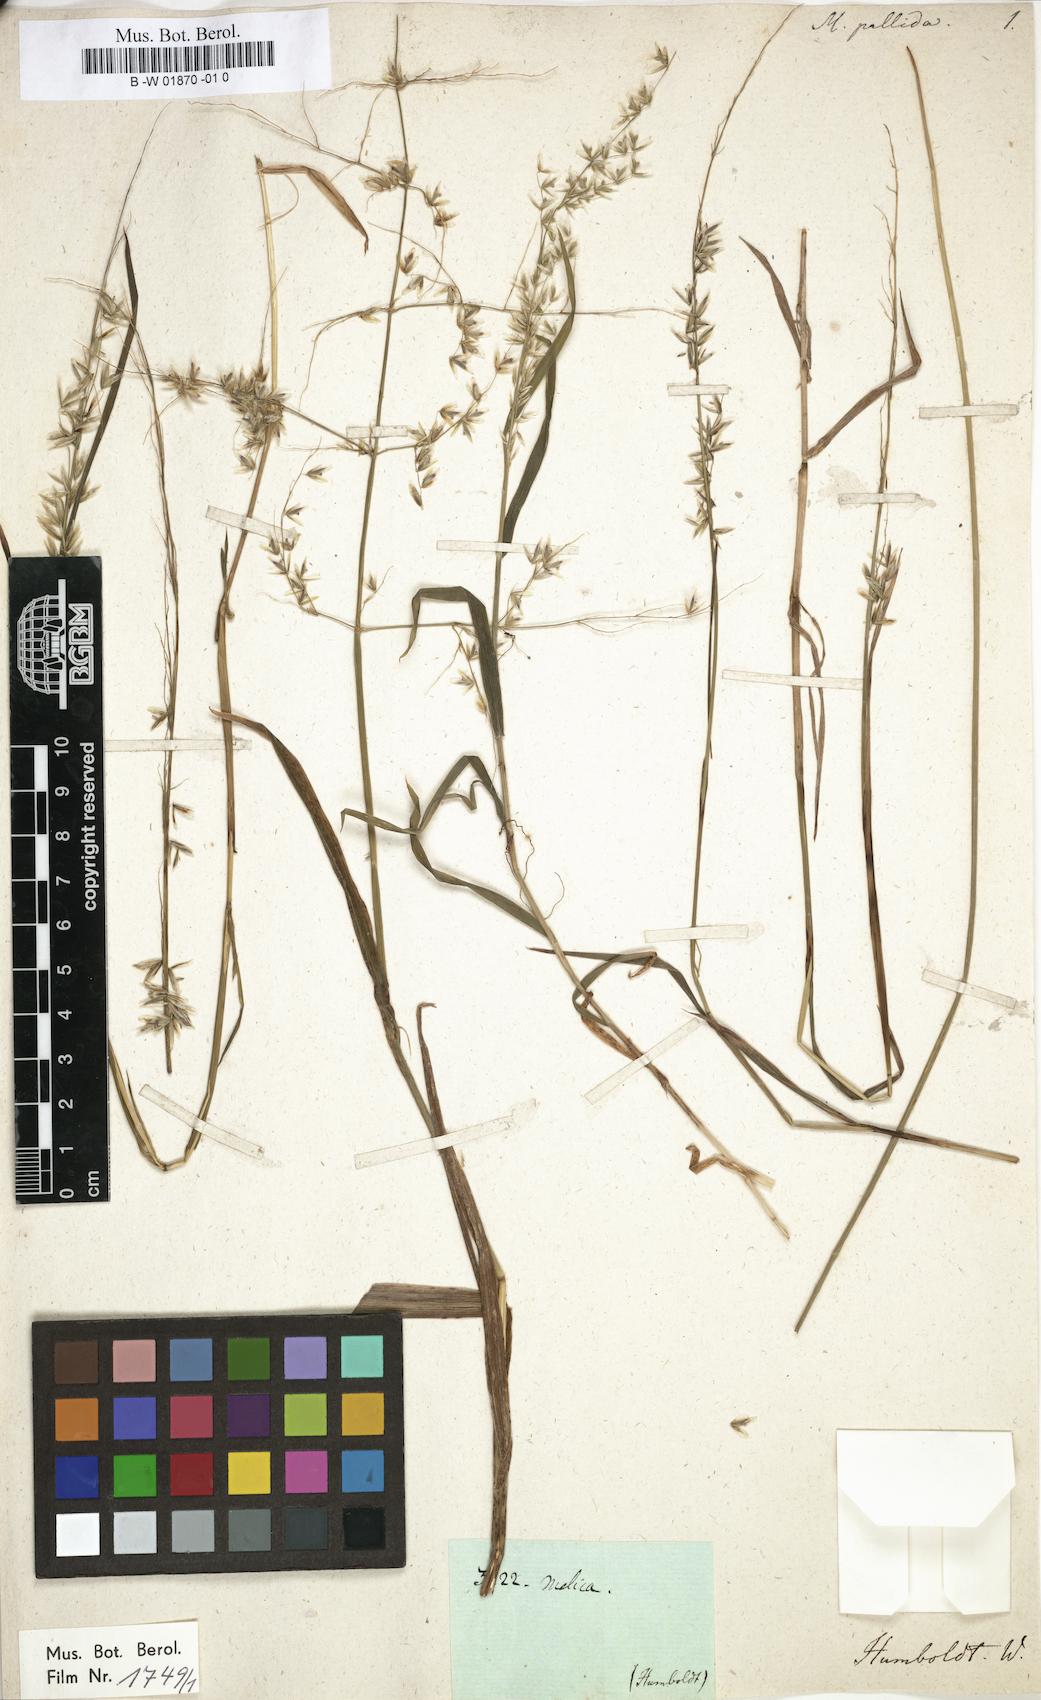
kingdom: Plantae
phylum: Tracheophyta
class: Liliopsida
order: Poales
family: Poaceae
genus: Melica
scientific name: Melica scabra
